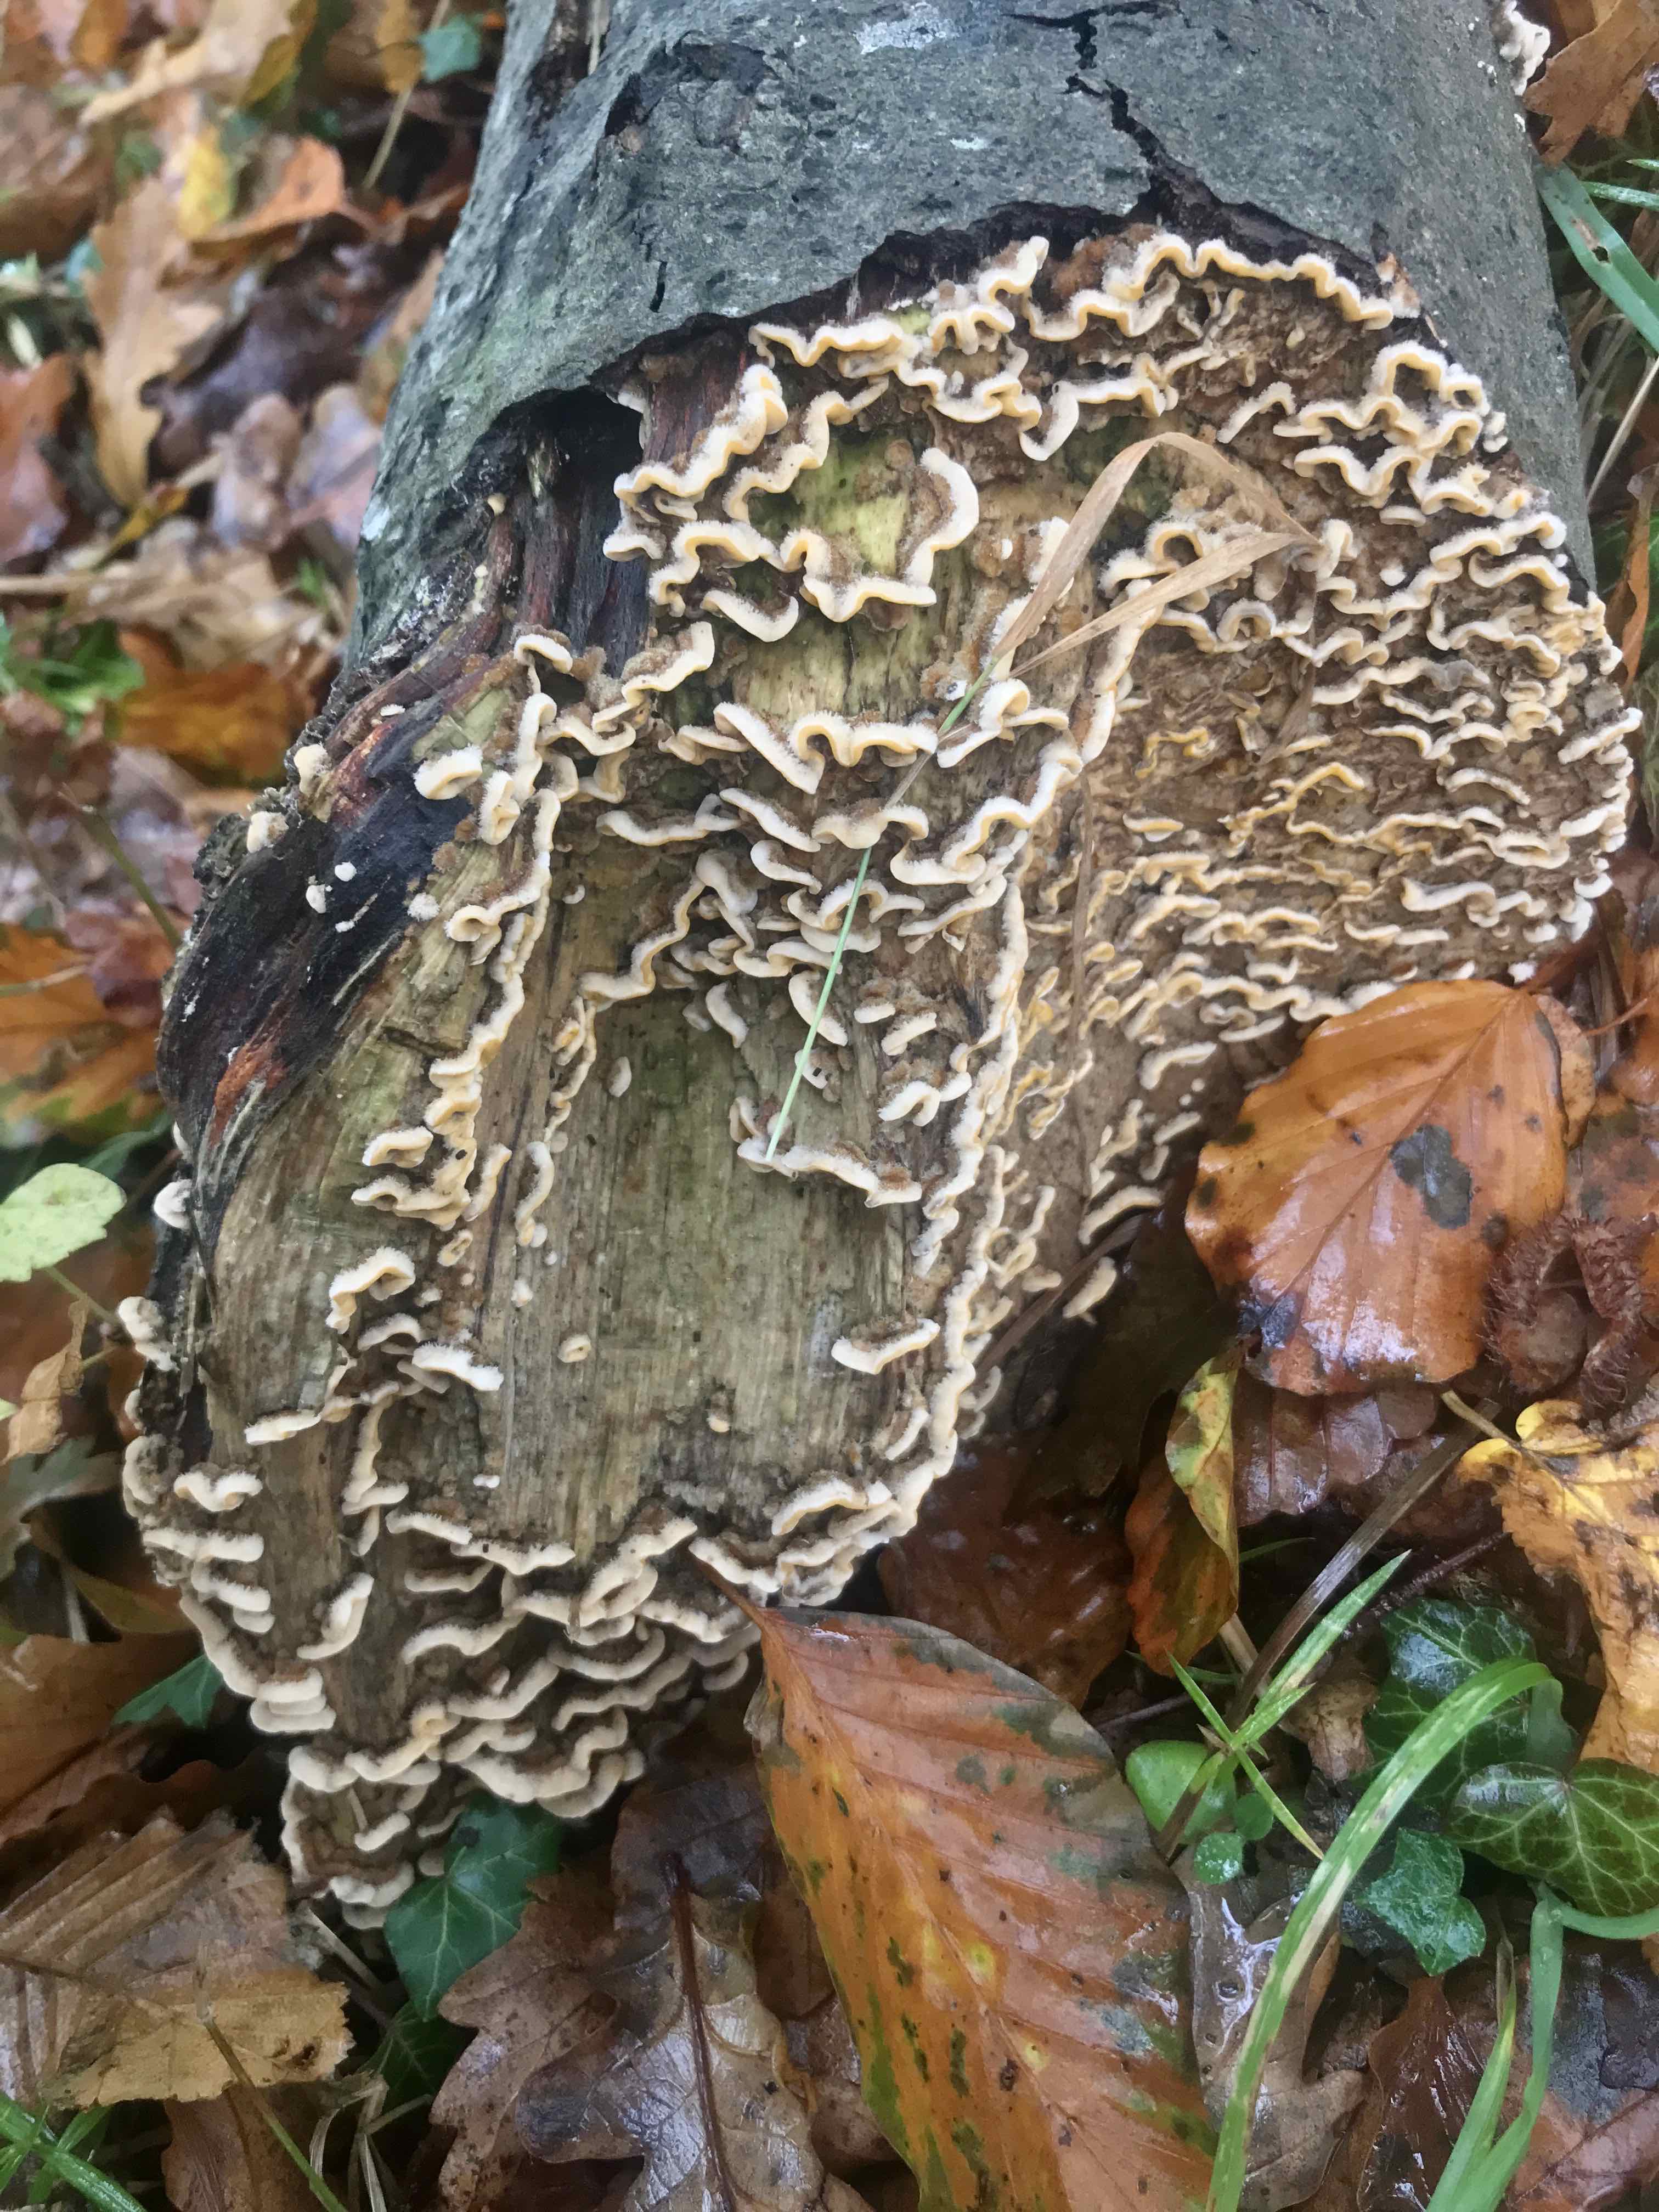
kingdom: Fungi
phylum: Basidiomycota
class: Agaricomycetes
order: Russulales
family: Stereaceae
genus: Stereum
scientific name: Stereum hirsutum
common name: håret lædersvamp
